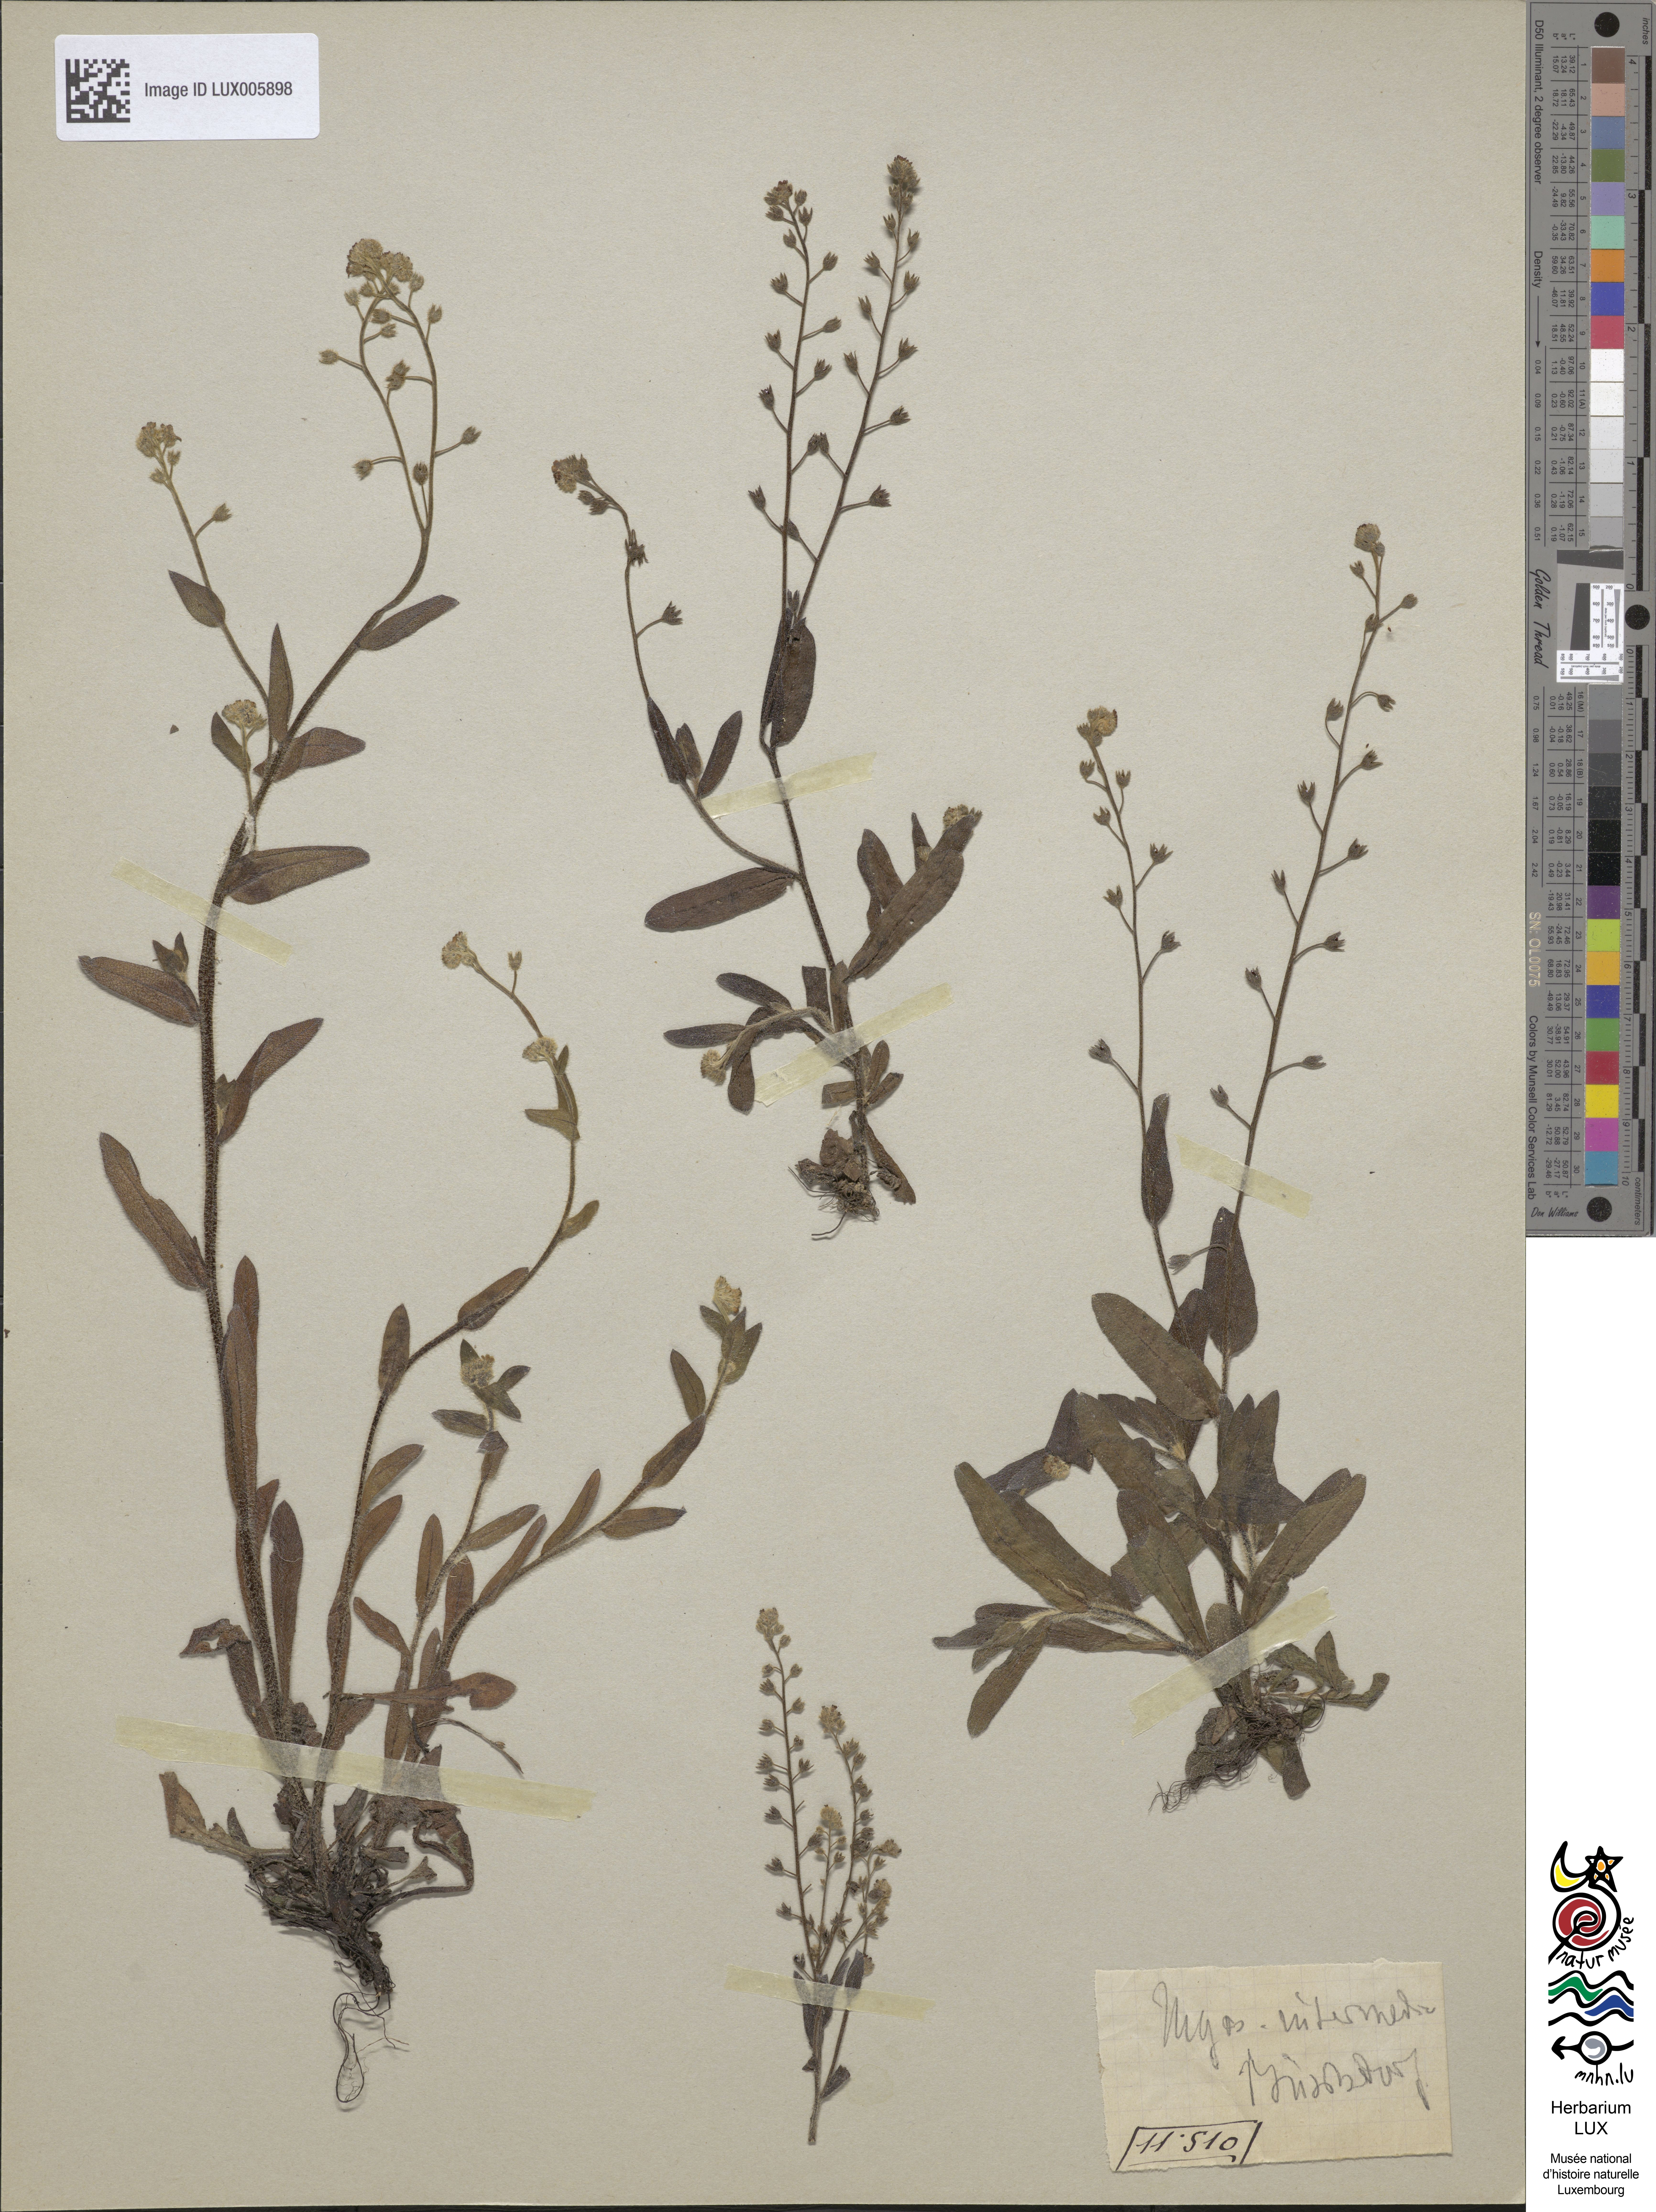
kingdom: Plantae
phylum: Tracheophyta
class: Magnoliopsida
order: Boraginales
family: Boraginaceae
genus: Myosotis
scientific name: Myosotis arvensis
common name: Field forget-me-not
